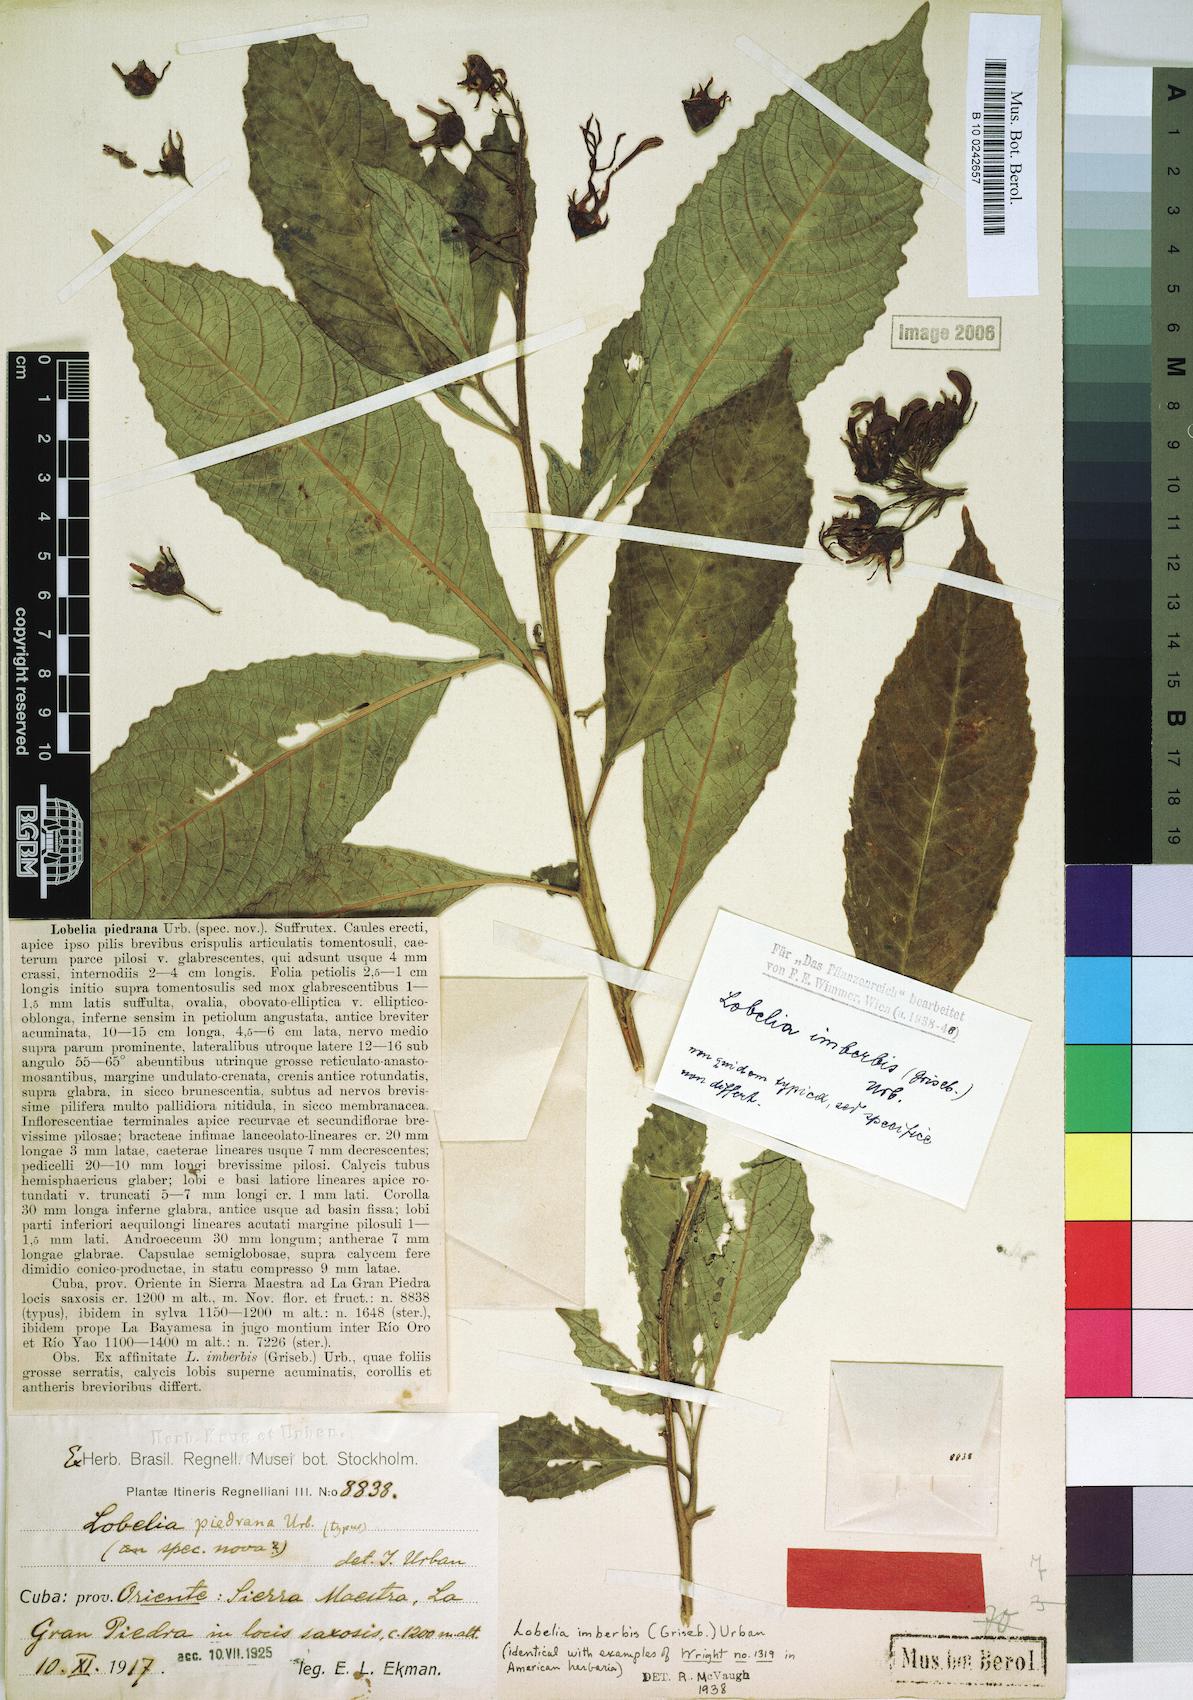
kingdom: Plantae
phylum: Tracheophyta
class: Magnoliopsida
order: Asterales
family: Campanulaceae
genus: Lobelia
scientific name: Lobelia imberbis
